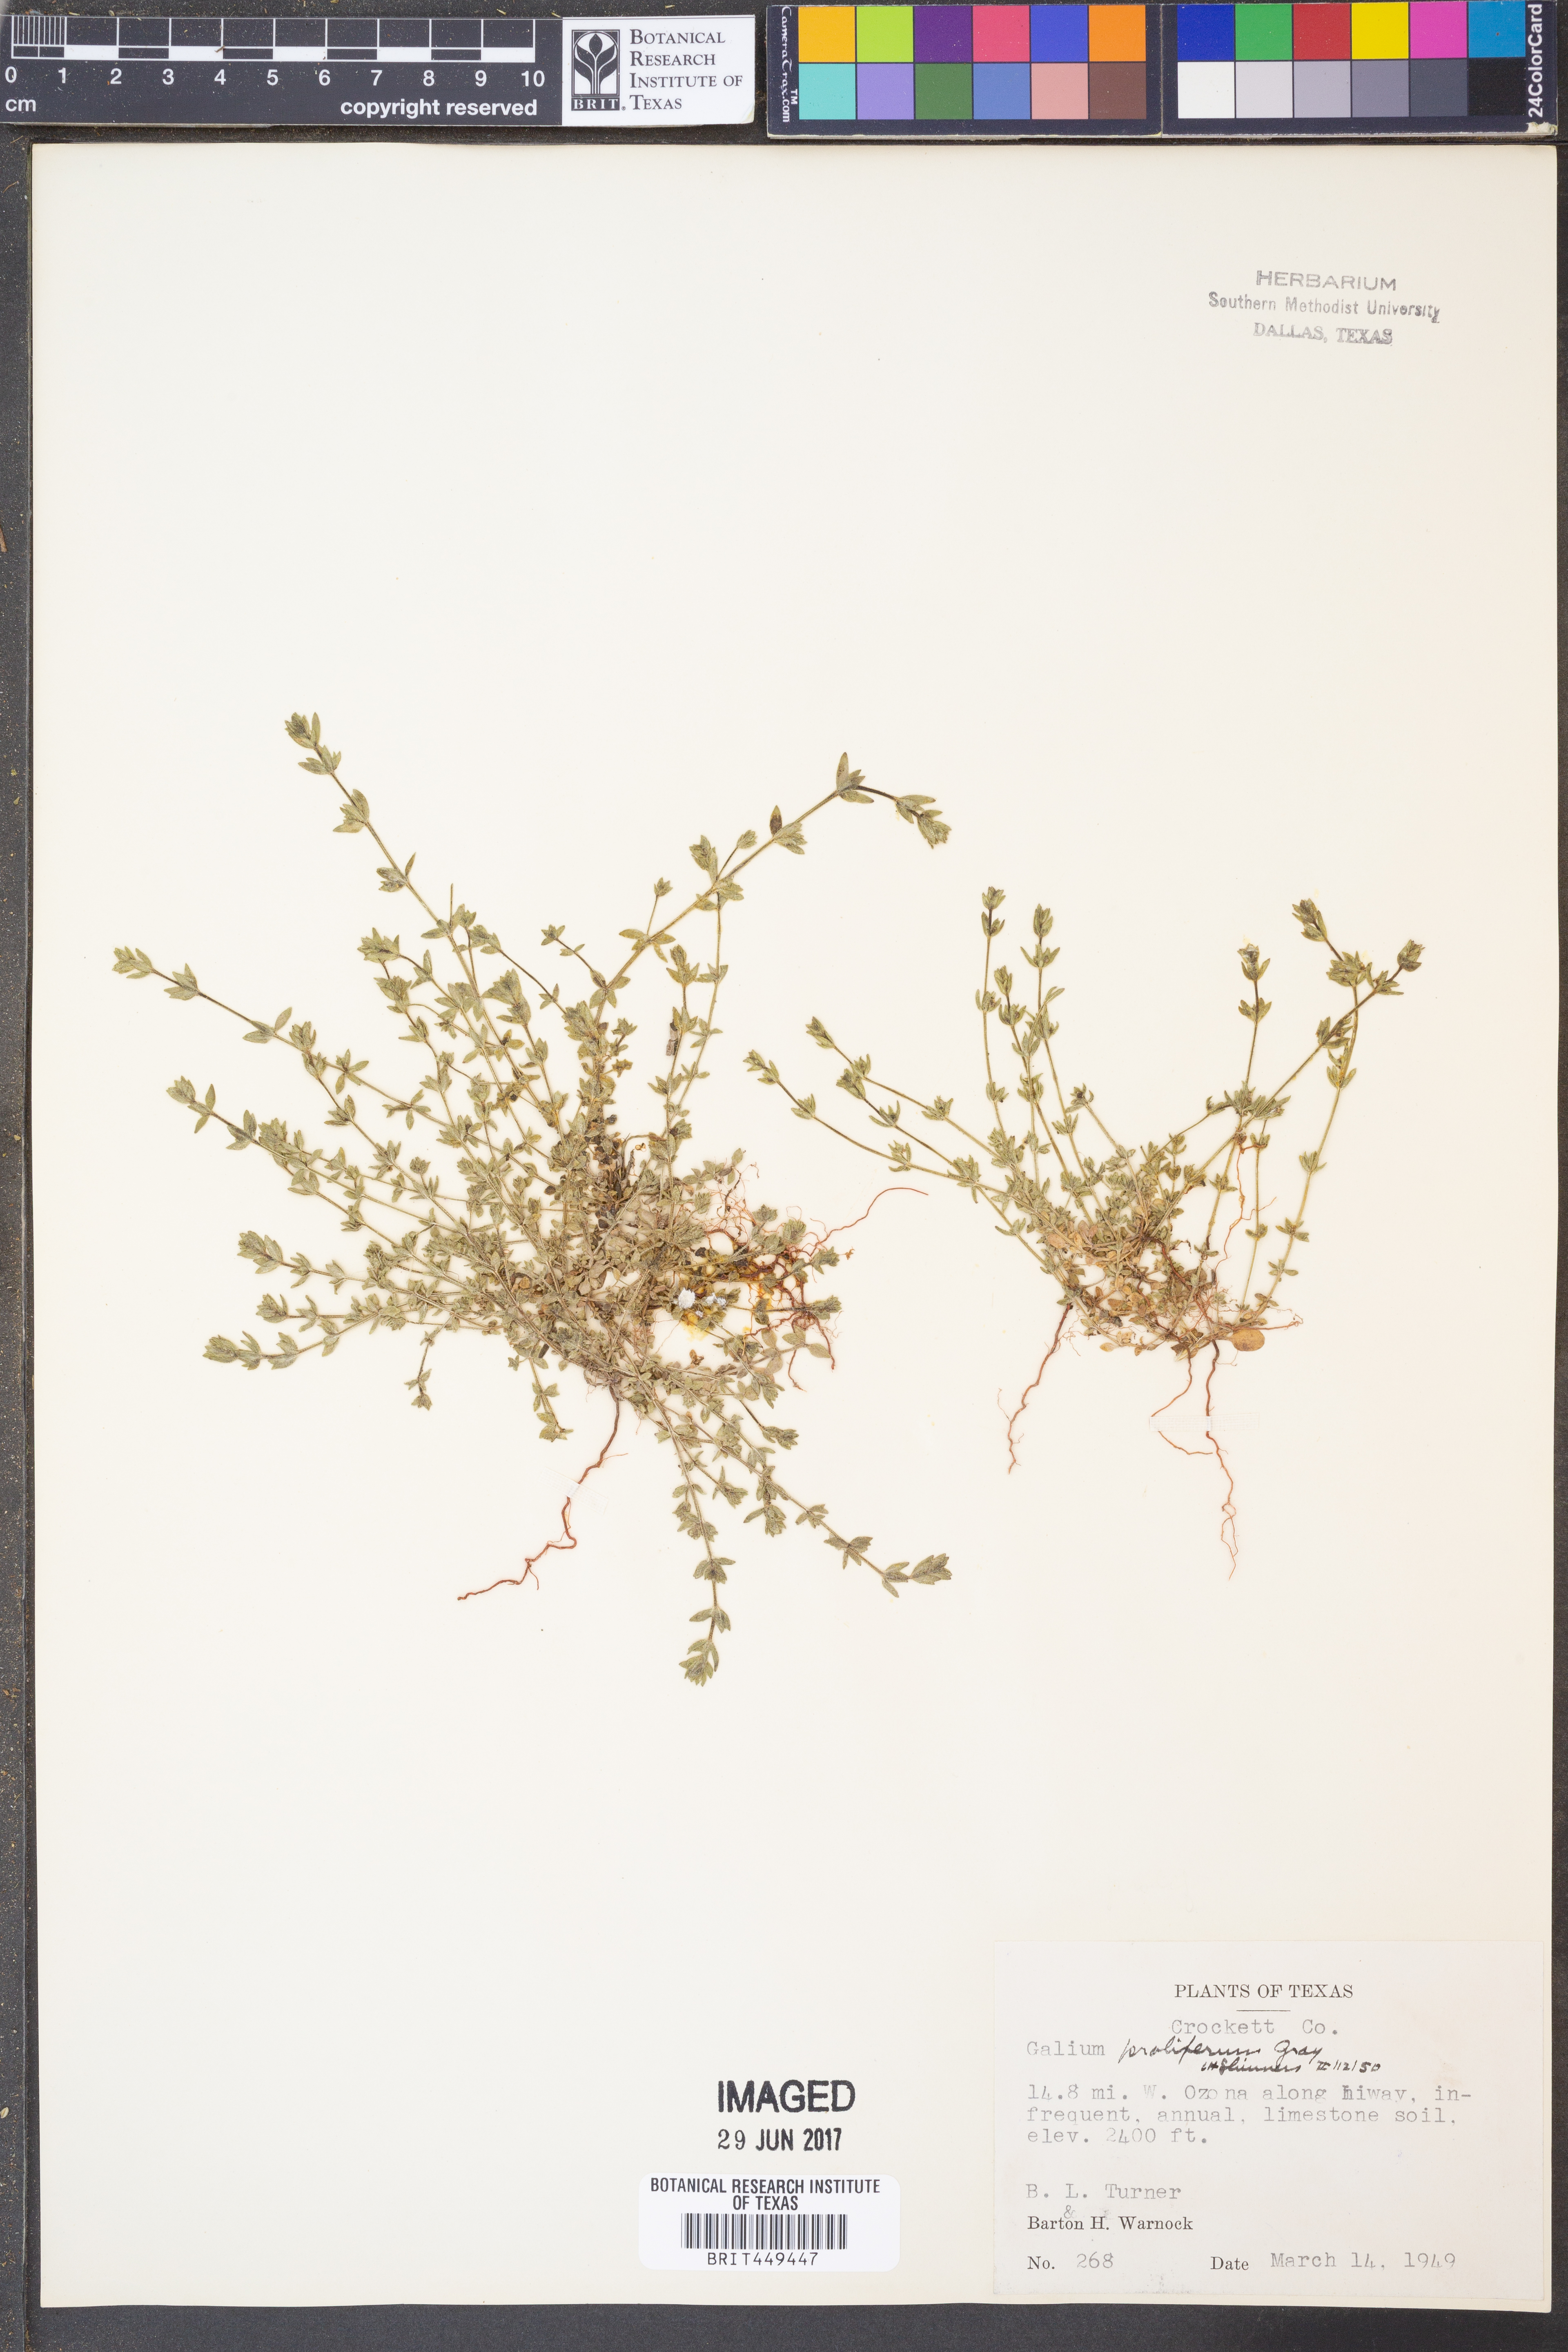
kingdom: Plantae
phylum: Tracheophyta
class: Magnoliopsida
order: Gentianales
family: Rubiaceae
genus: Galium
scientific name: Galium proliferum
